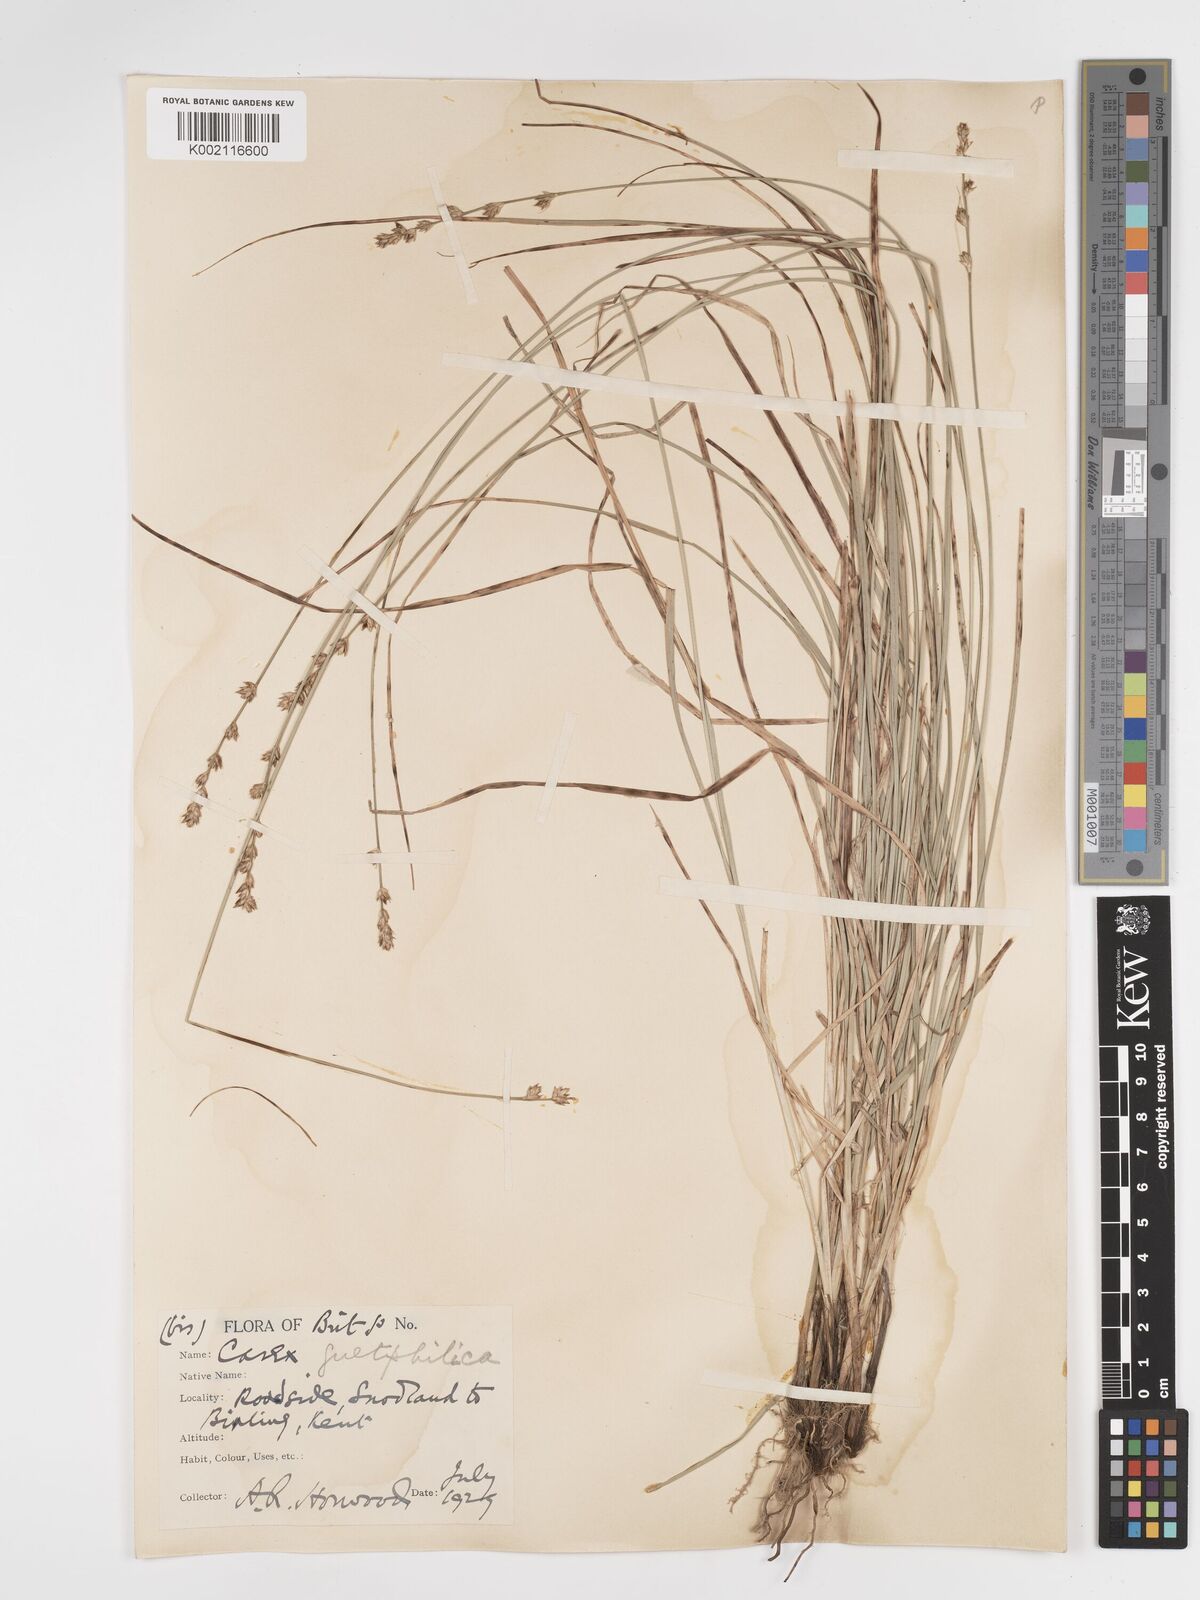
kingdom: Plantae
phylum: Tracheophyta
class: Liliopsida
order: Poales
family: Cyperaceae
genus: Carex
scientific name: Carex divulsa
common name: Grassland sedge
